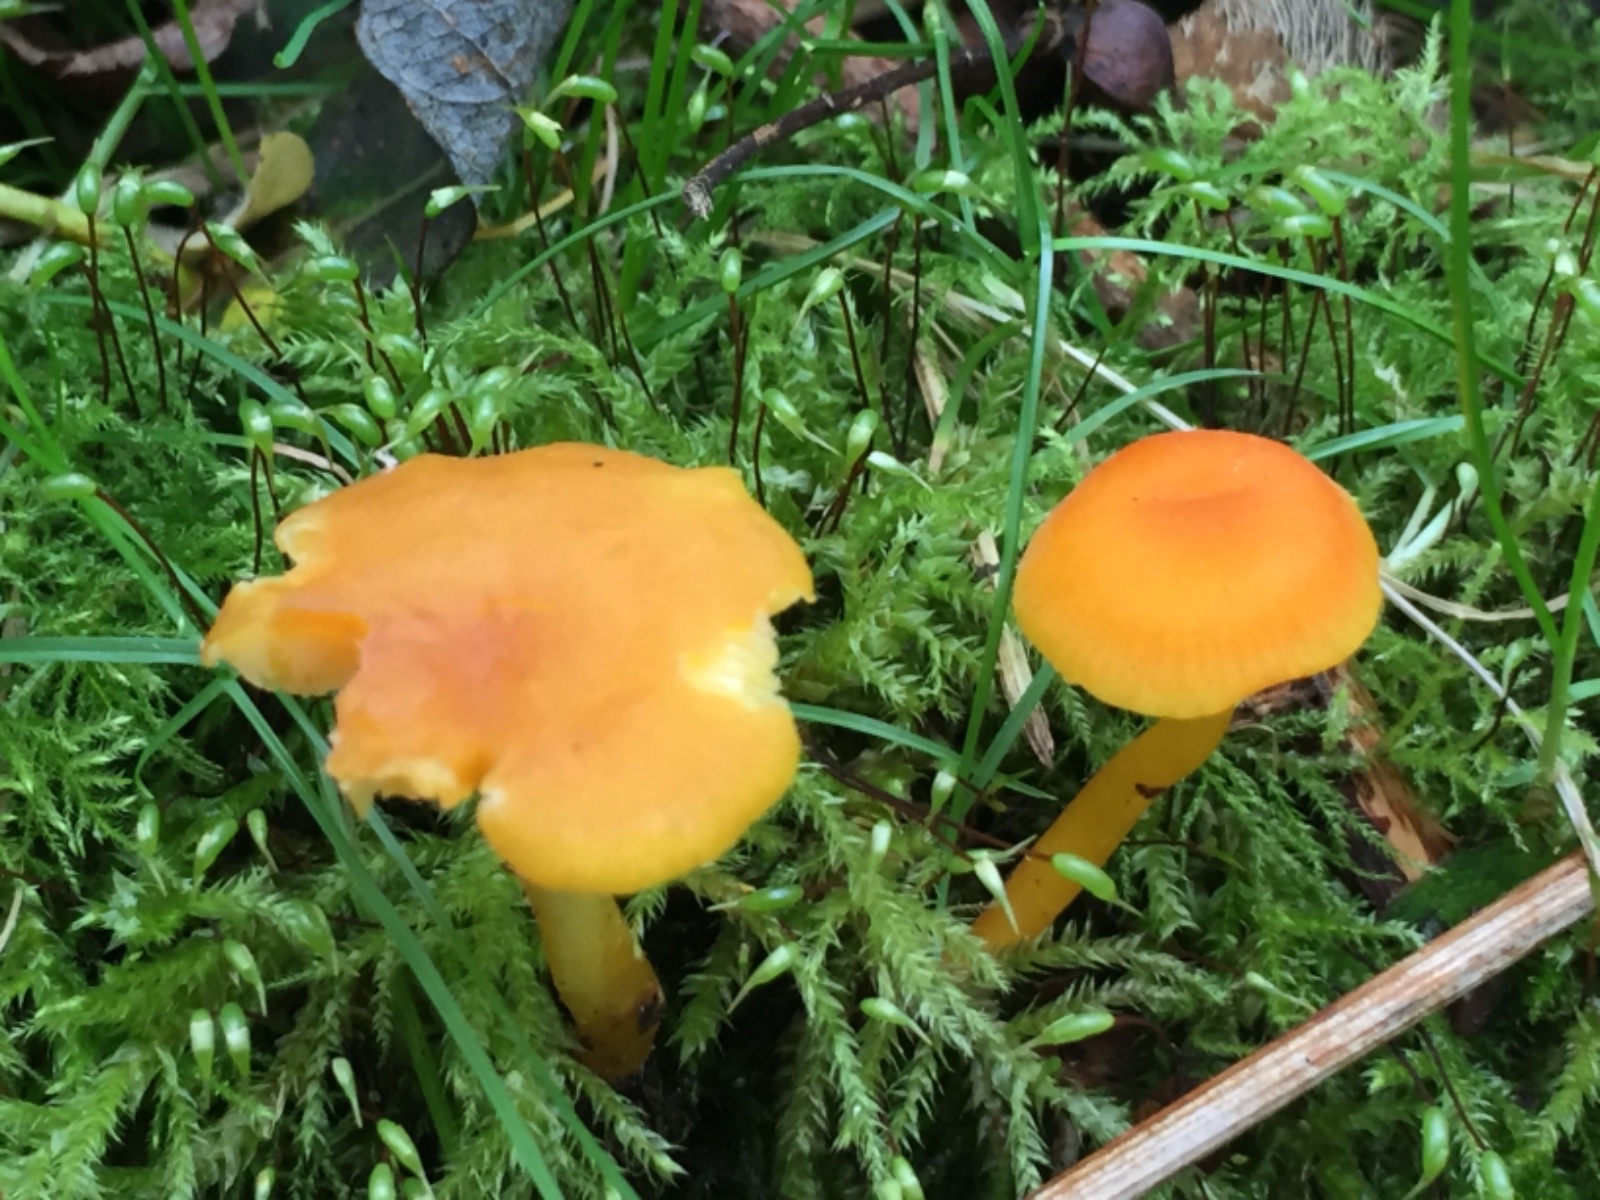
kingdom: Fungi
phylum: Basidiomycota
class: Agaricomycetes
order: Agaricales
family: Hygrophoraceae
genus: Hygrocybe
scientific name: Hygrocybe
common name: vokshat
